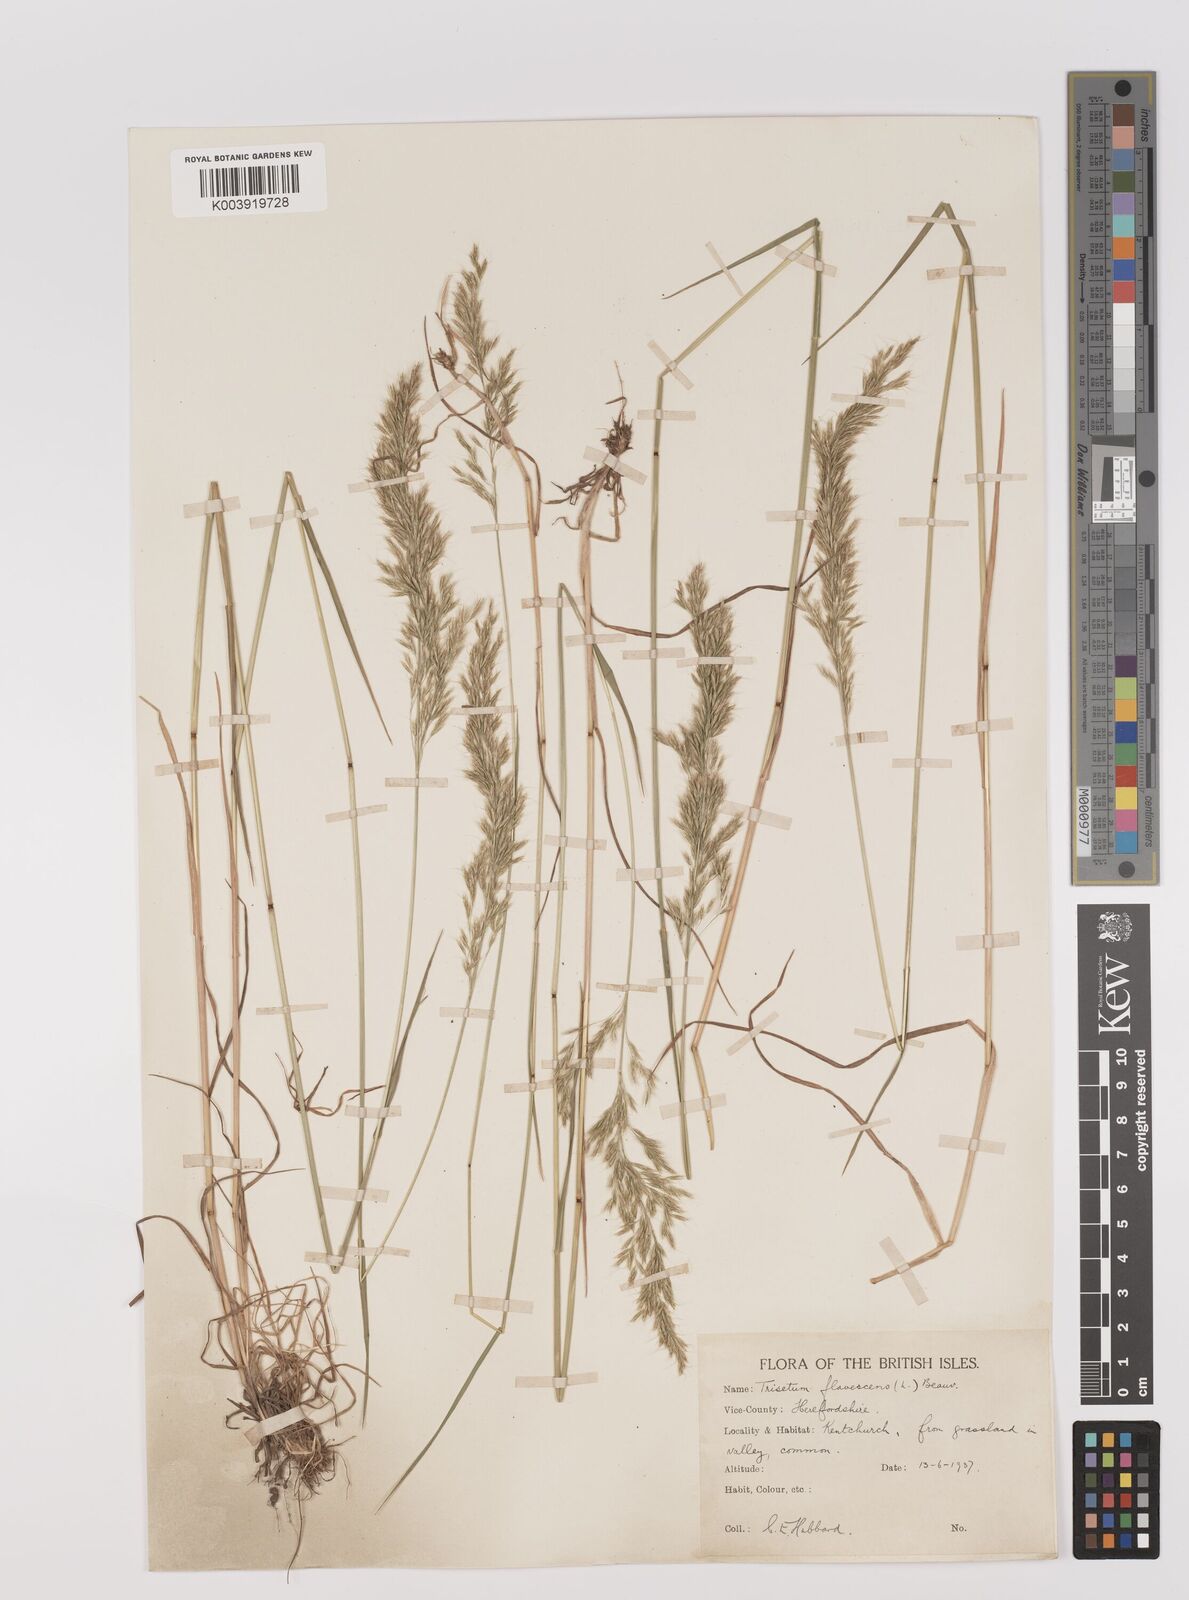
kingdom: Plantae
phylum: Tracheophyta
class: Liliopsida
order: Poales
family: Poaceae
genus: Trisetum
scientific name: Trisetum flavescens
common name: Yellow oat-grass
